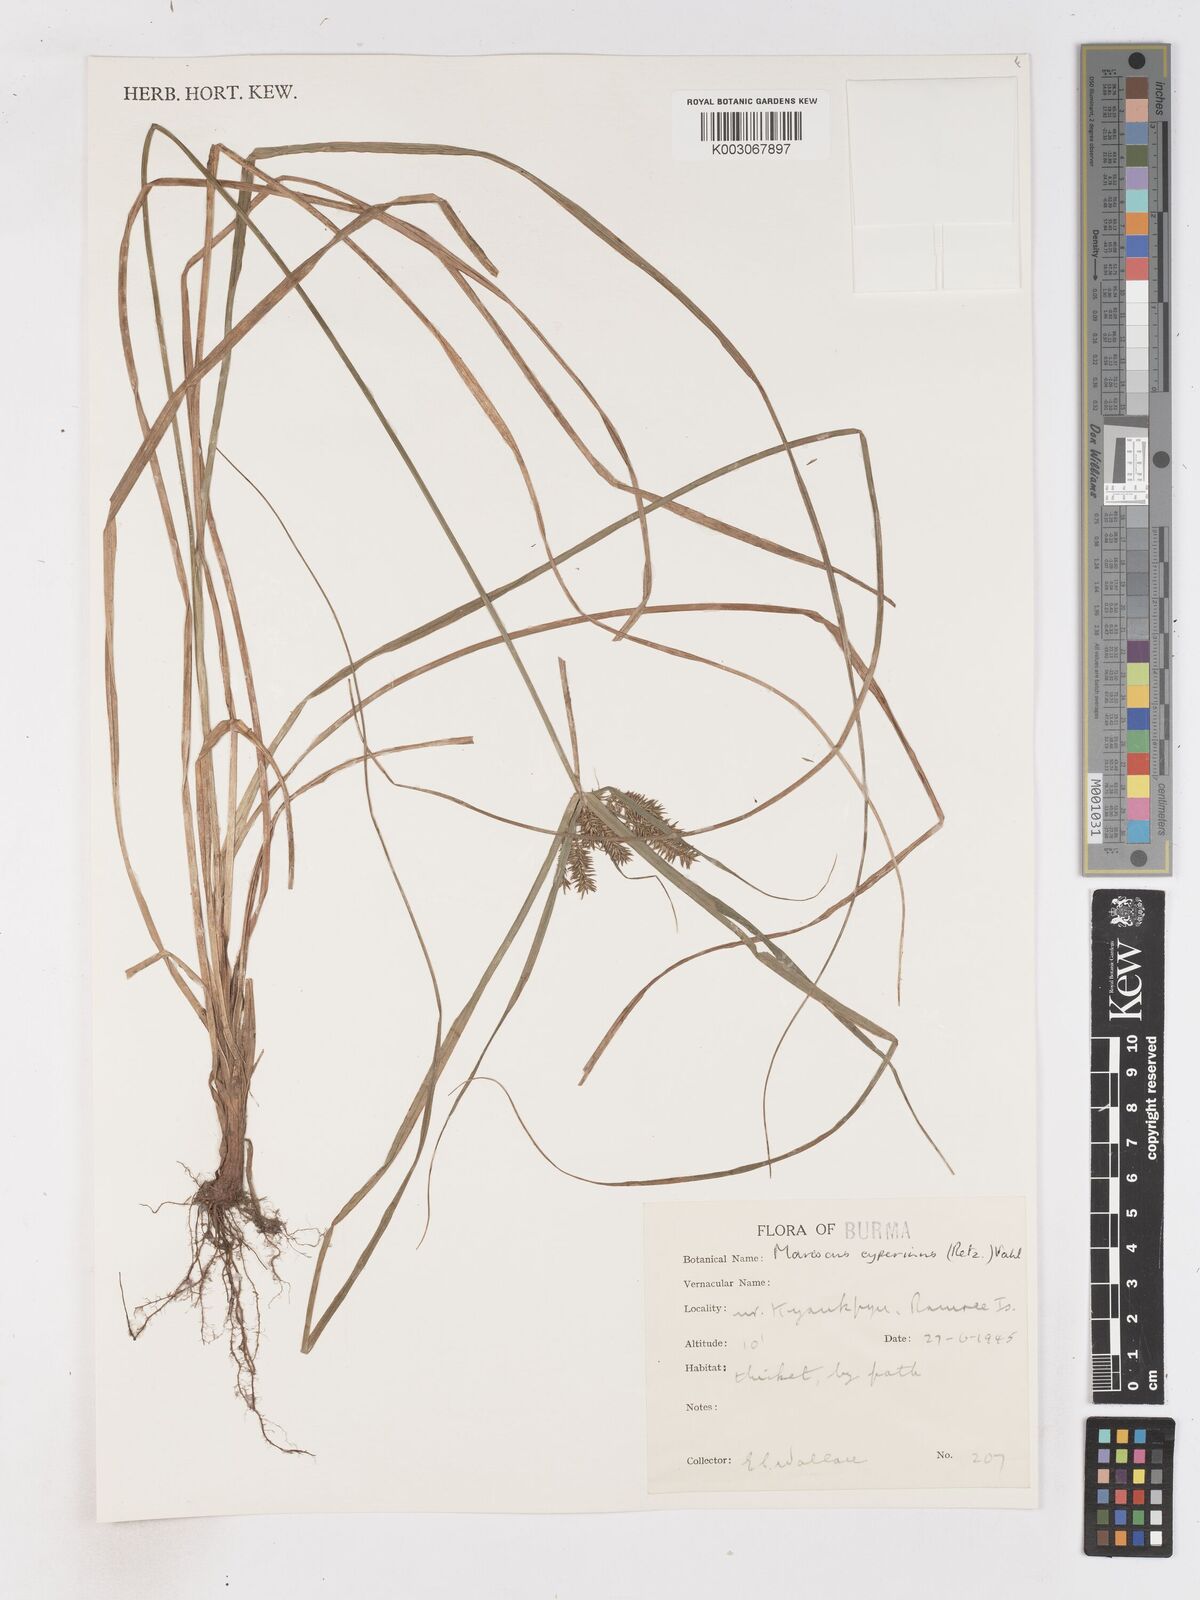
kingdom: Plantae
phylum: Tracheophyta
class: Liliopsida
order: Poales
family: Cyperaceae
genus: Cyperus
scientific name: Cyperus cyperinus
